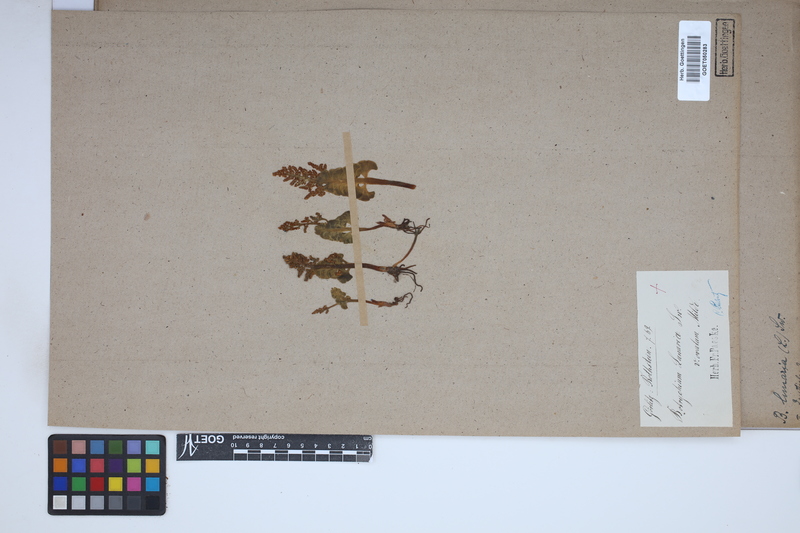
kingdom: Plantae
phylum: Tracheophyta
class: Polypodiopsida
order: Ophioglossales
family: Ophioglossaceae
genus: Botrychium
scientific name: Botrychium lunaria
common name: Moonwort
